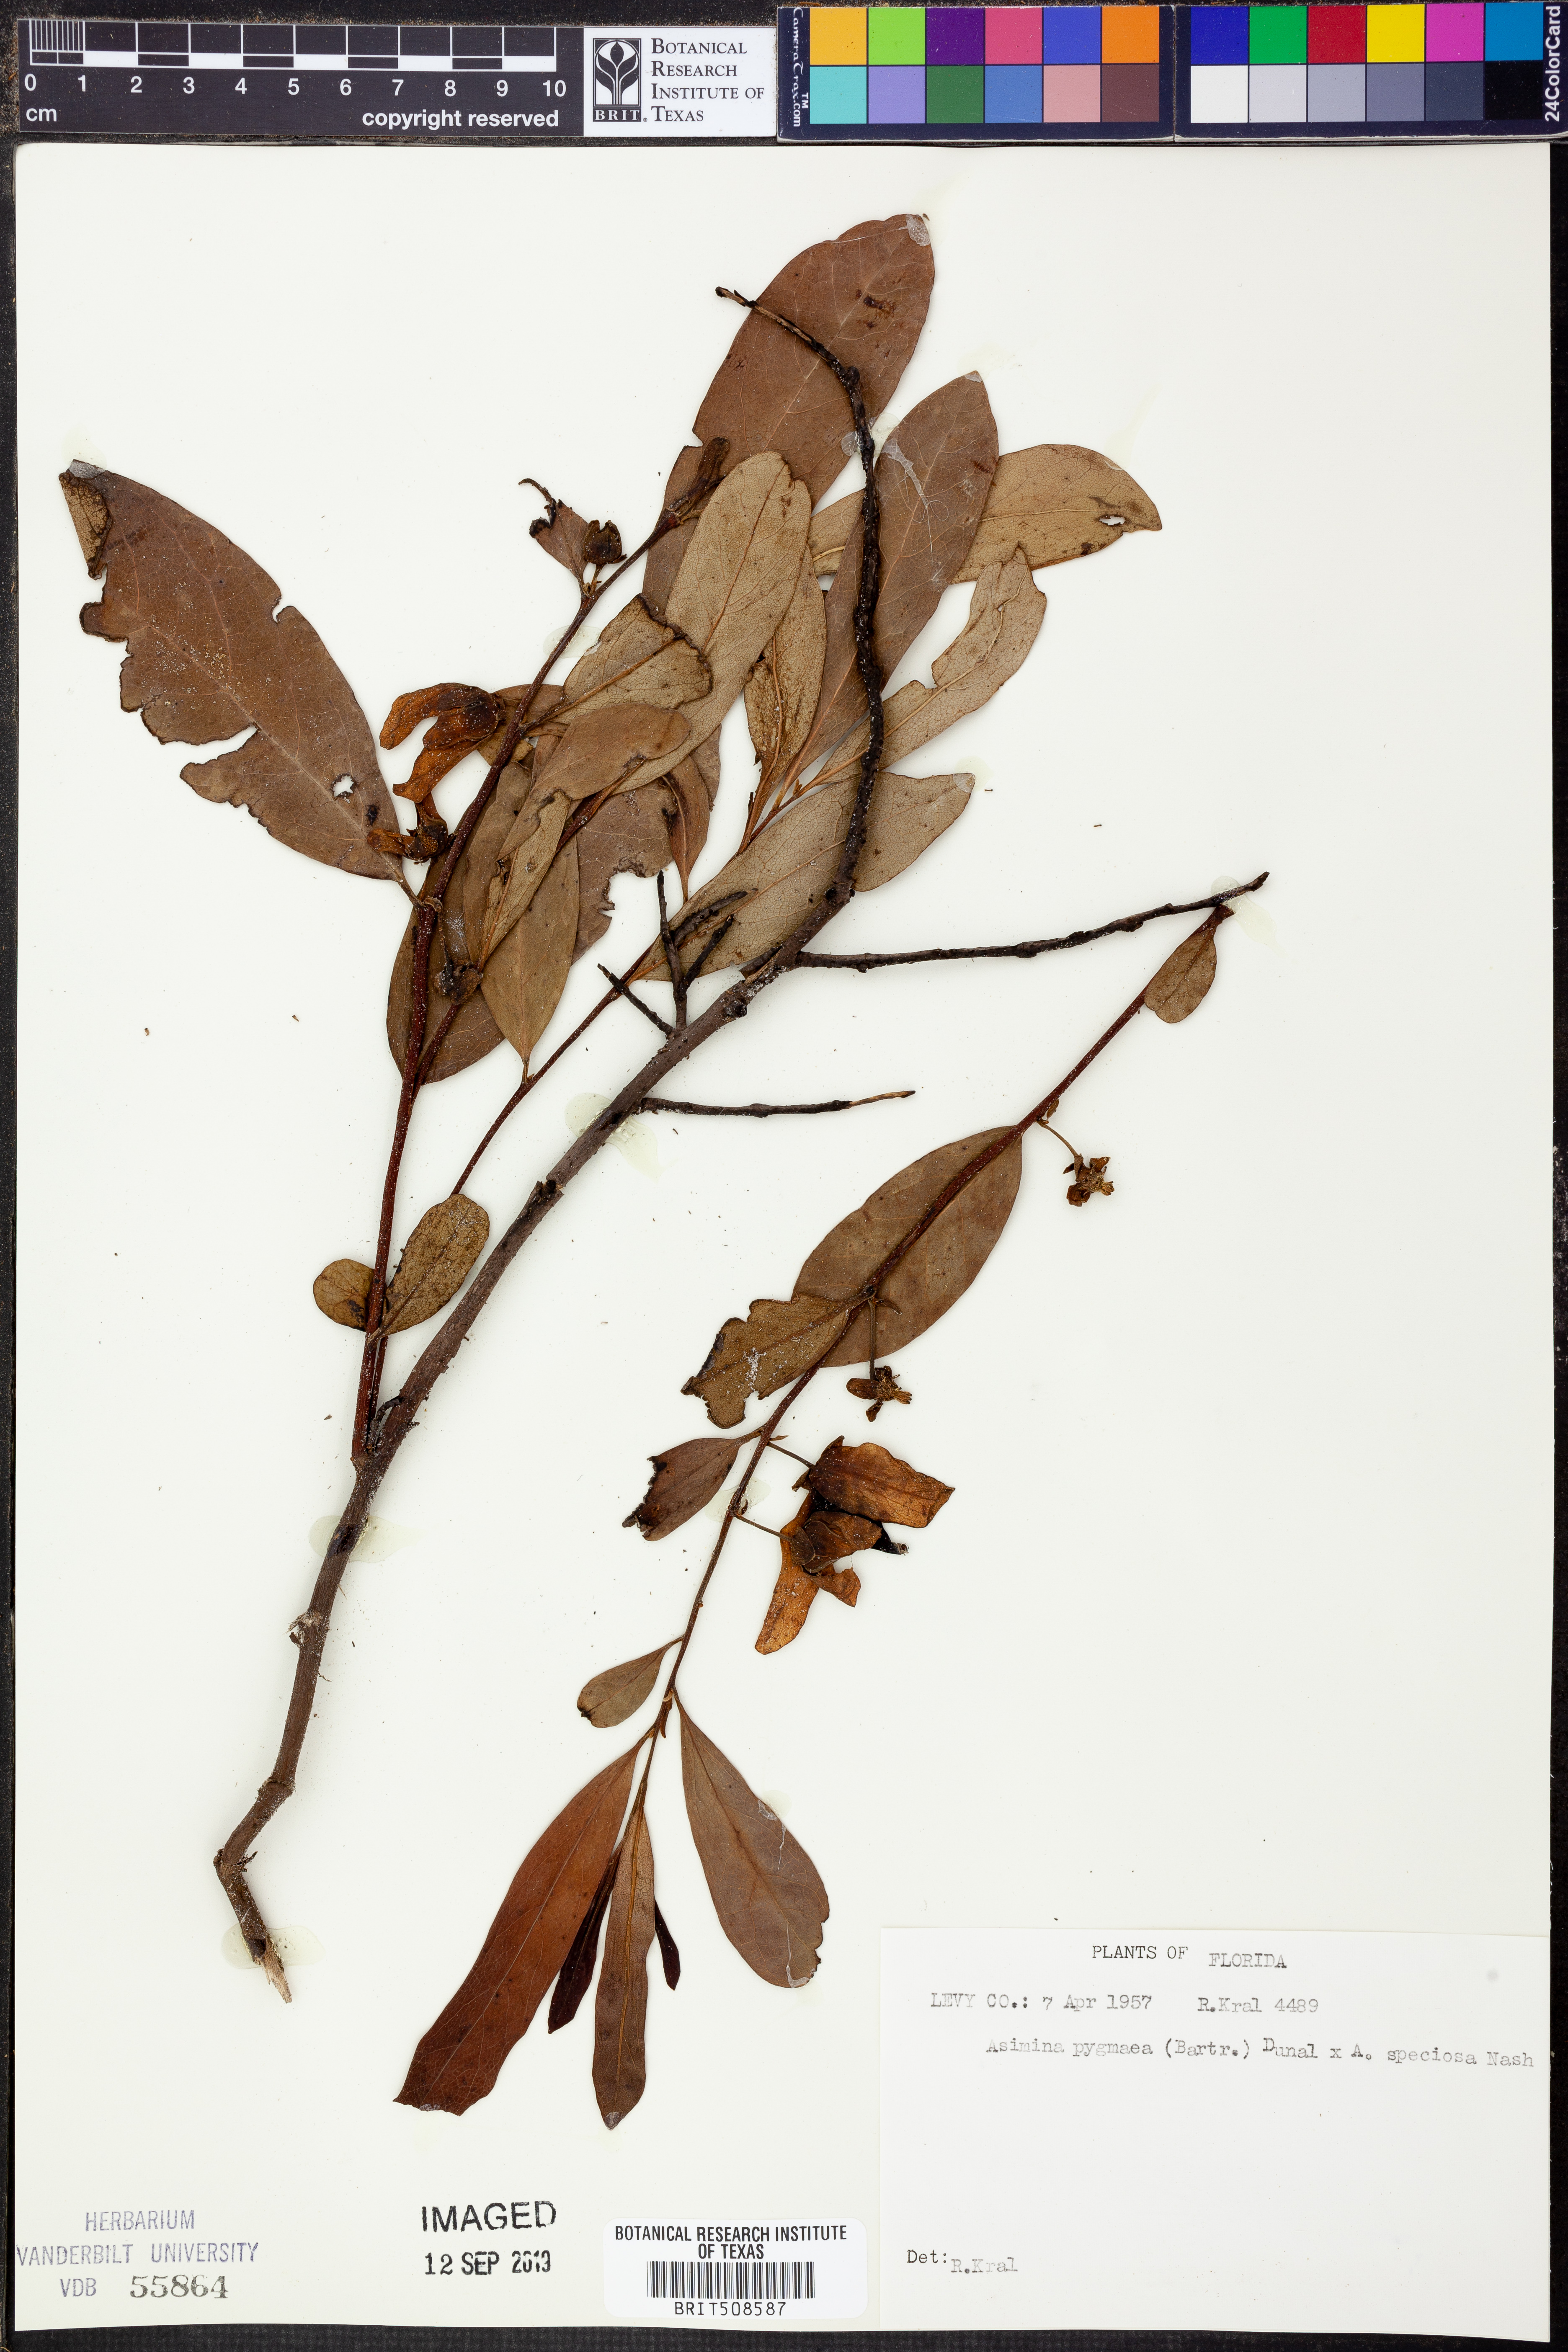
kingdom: Plantae
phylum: Tracheophyta
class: Magnoliopsida
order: Magnoliales
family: Annonaceae
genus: Asimina
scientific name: Asimina pygmaea
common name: Dwarf pawpaw
